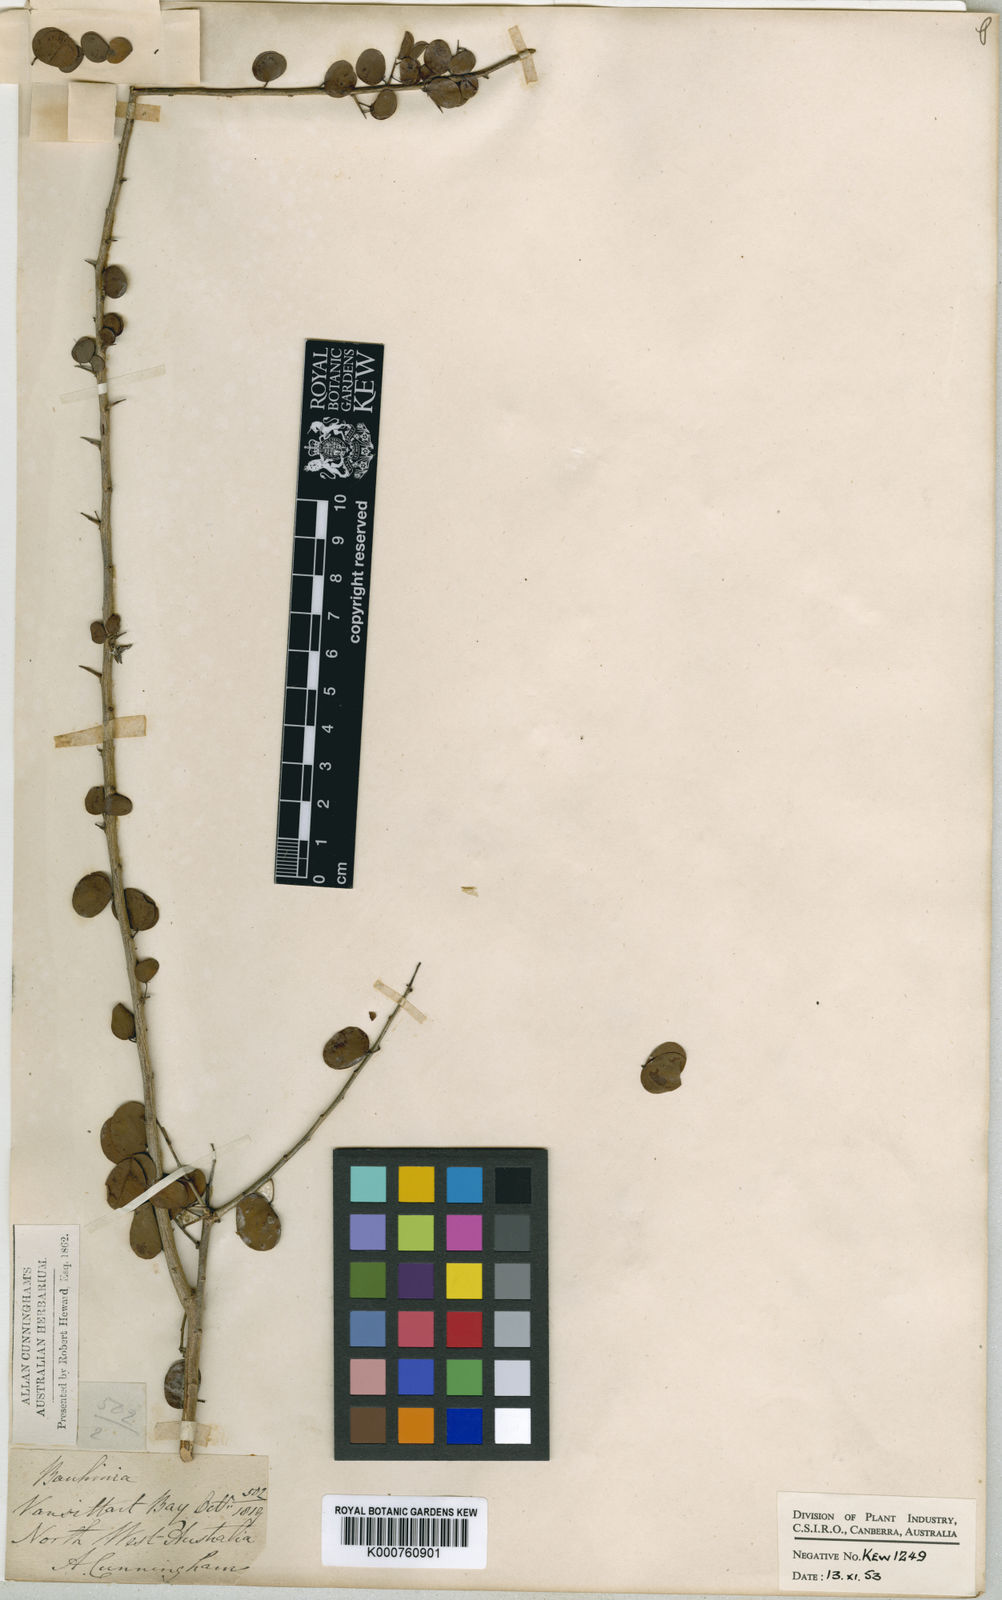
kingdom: Plantae
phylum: Tracheophyta
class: Magnoliopsida
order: Fabales
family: Fabaceae
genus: Lysiphyllum
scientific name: Lysiphyllum cunninghamii
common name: Kimberley bauhinia
